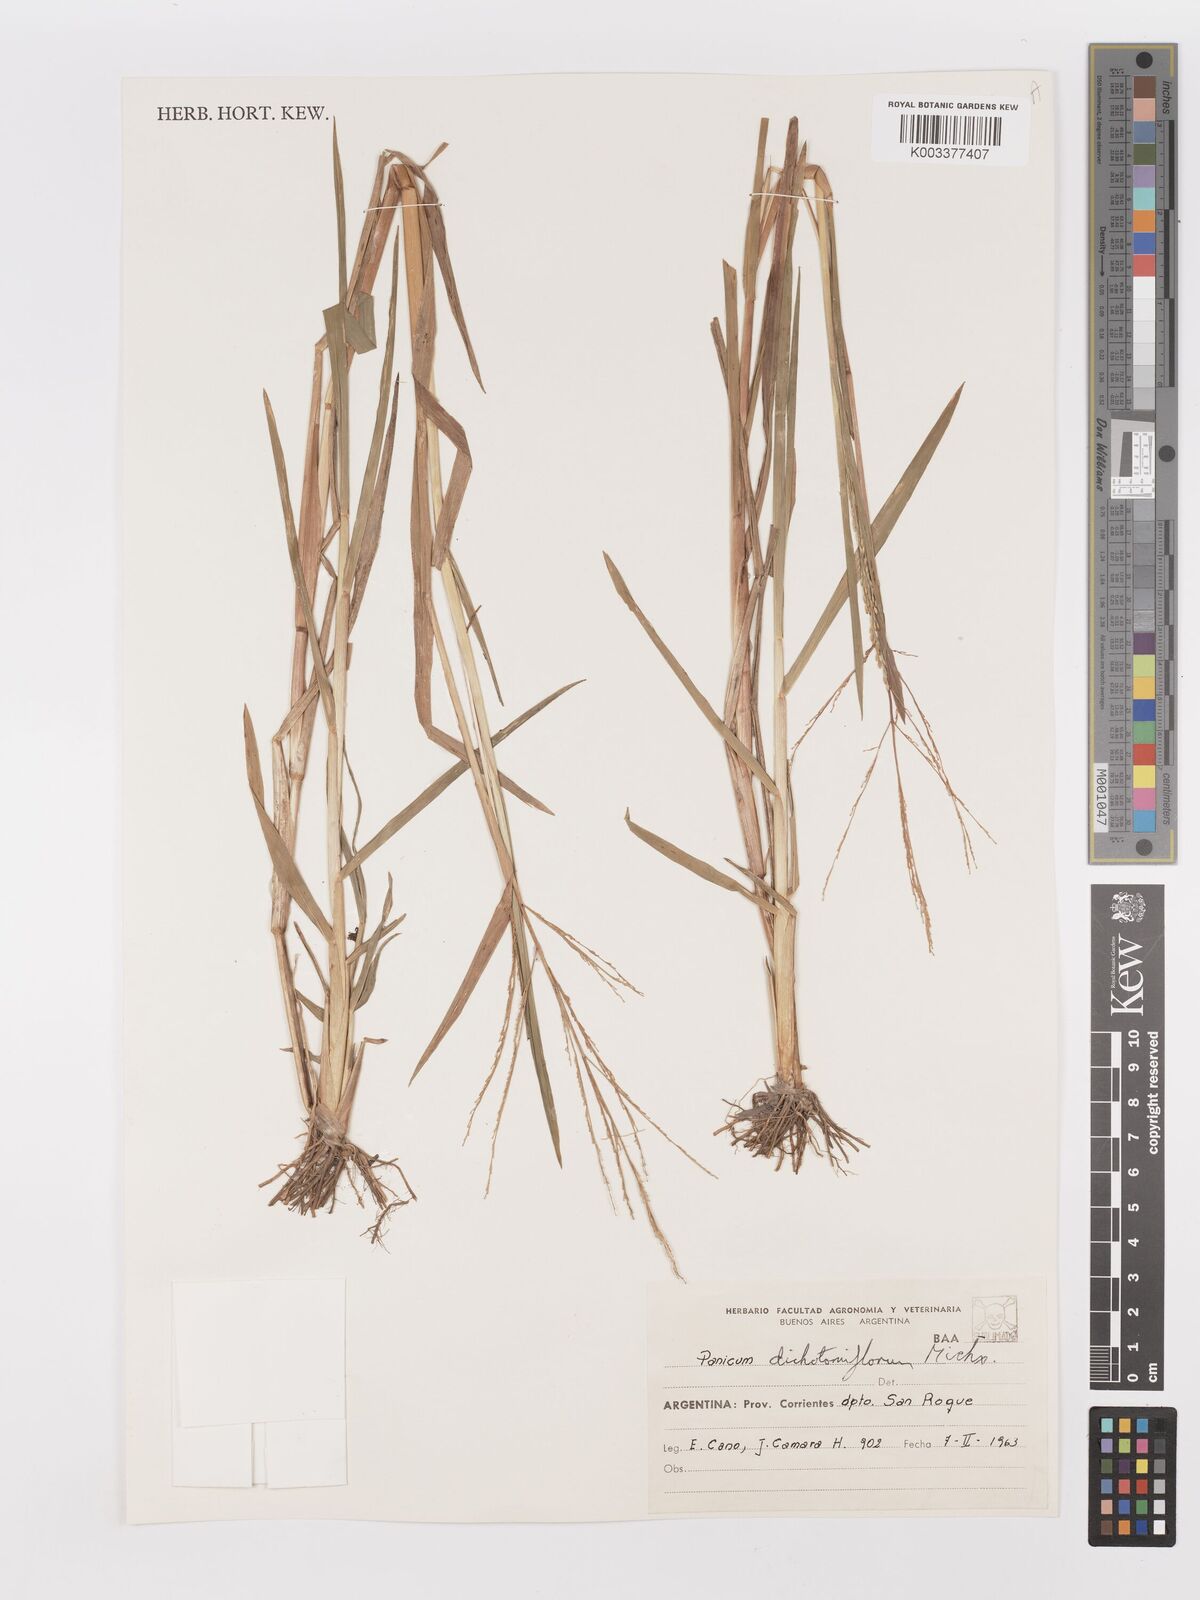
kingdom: Plantae
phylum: Tracheophyta
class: Liliopsida
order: Poales
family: Poaceae
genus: Panicum
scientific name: Panicum dichotomiflorum
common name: Autumn millet
